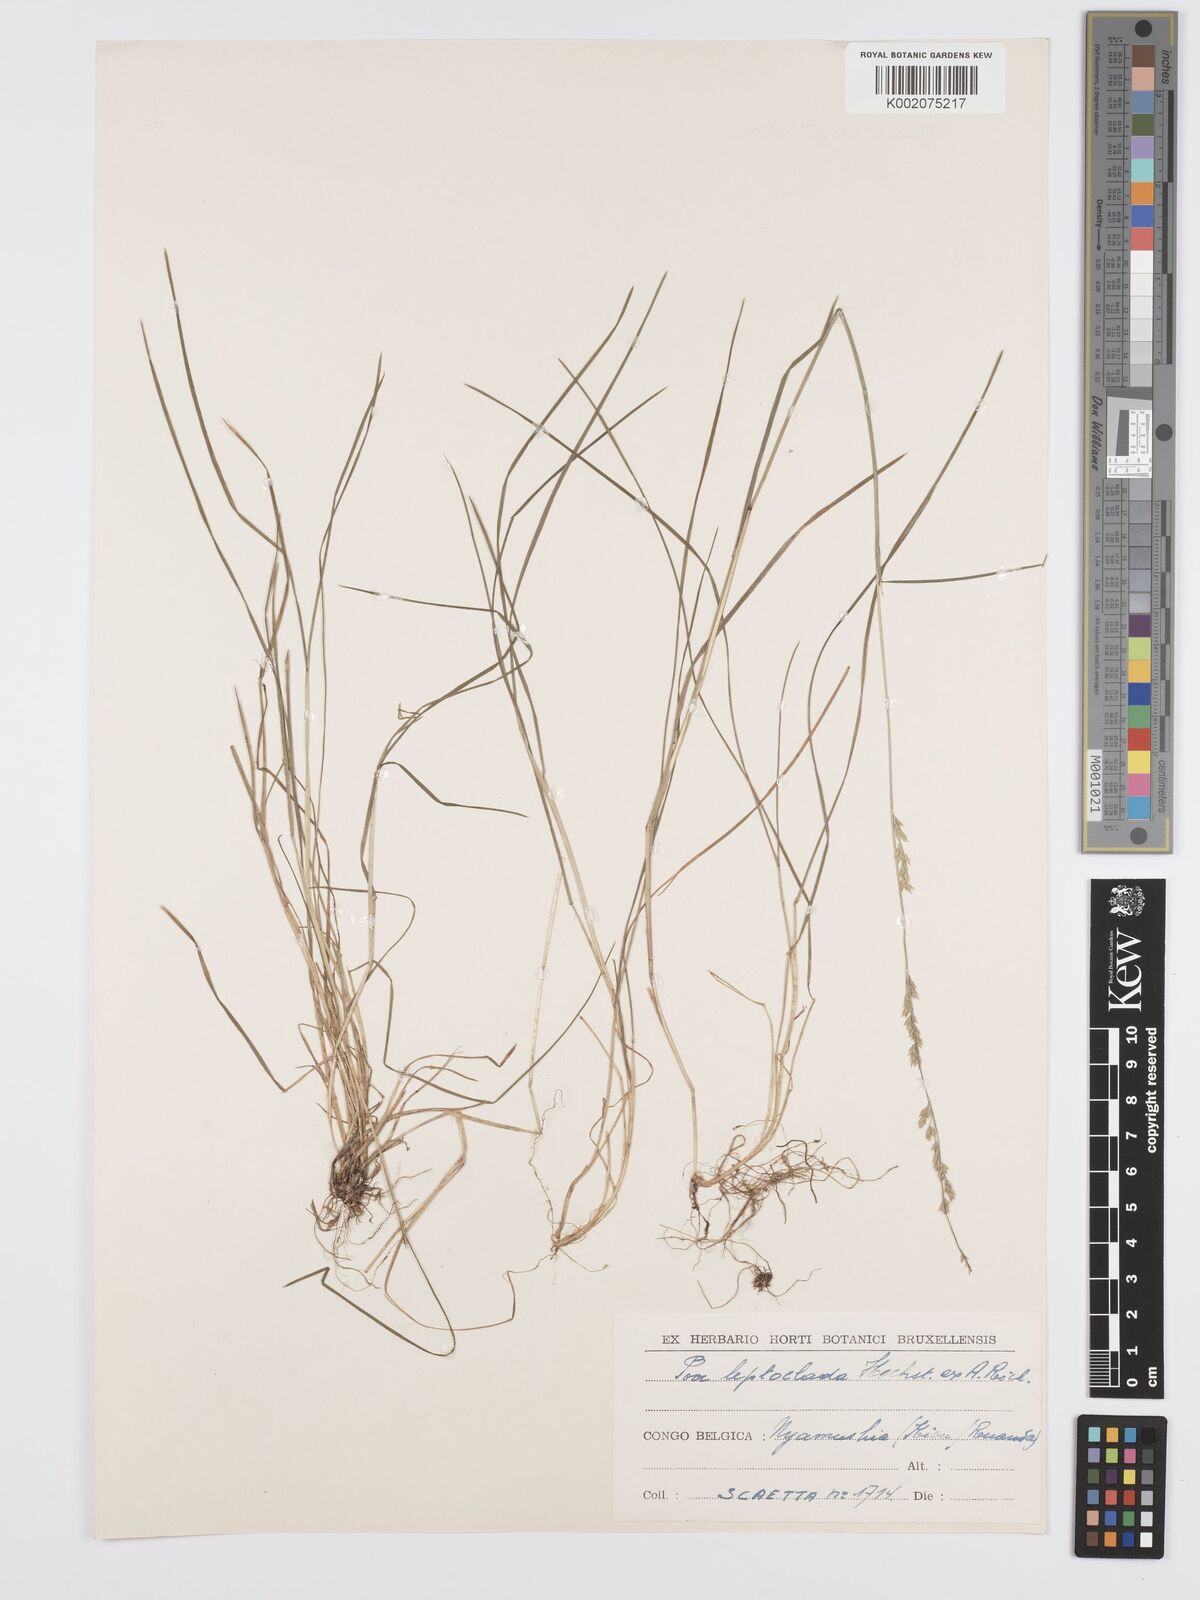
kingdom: Plantae
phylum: Tracheophyta
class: Liliopsida
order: Poales
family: Poaceae
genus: Poa
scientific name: Poa leptoclada
